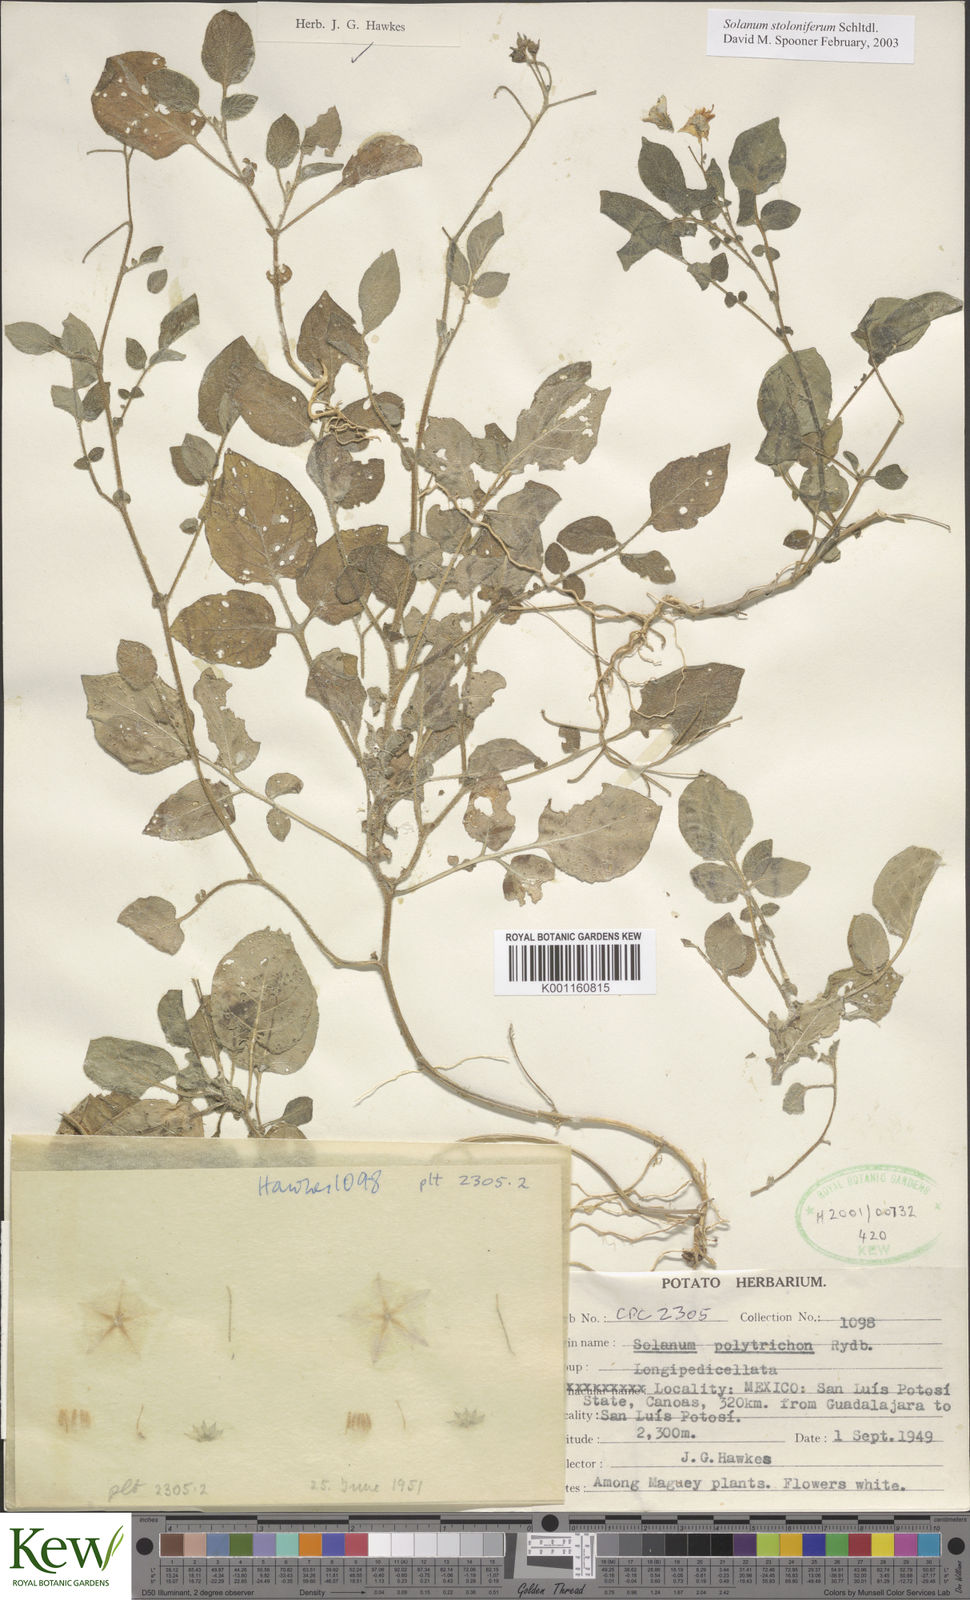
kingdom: Plantae
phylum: Tracheophyta
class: Magnoliopsida
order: Solanales
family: Solanaceae
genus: Solanum
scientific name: Solanum stoloniferum
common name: Fendler's nighshade
